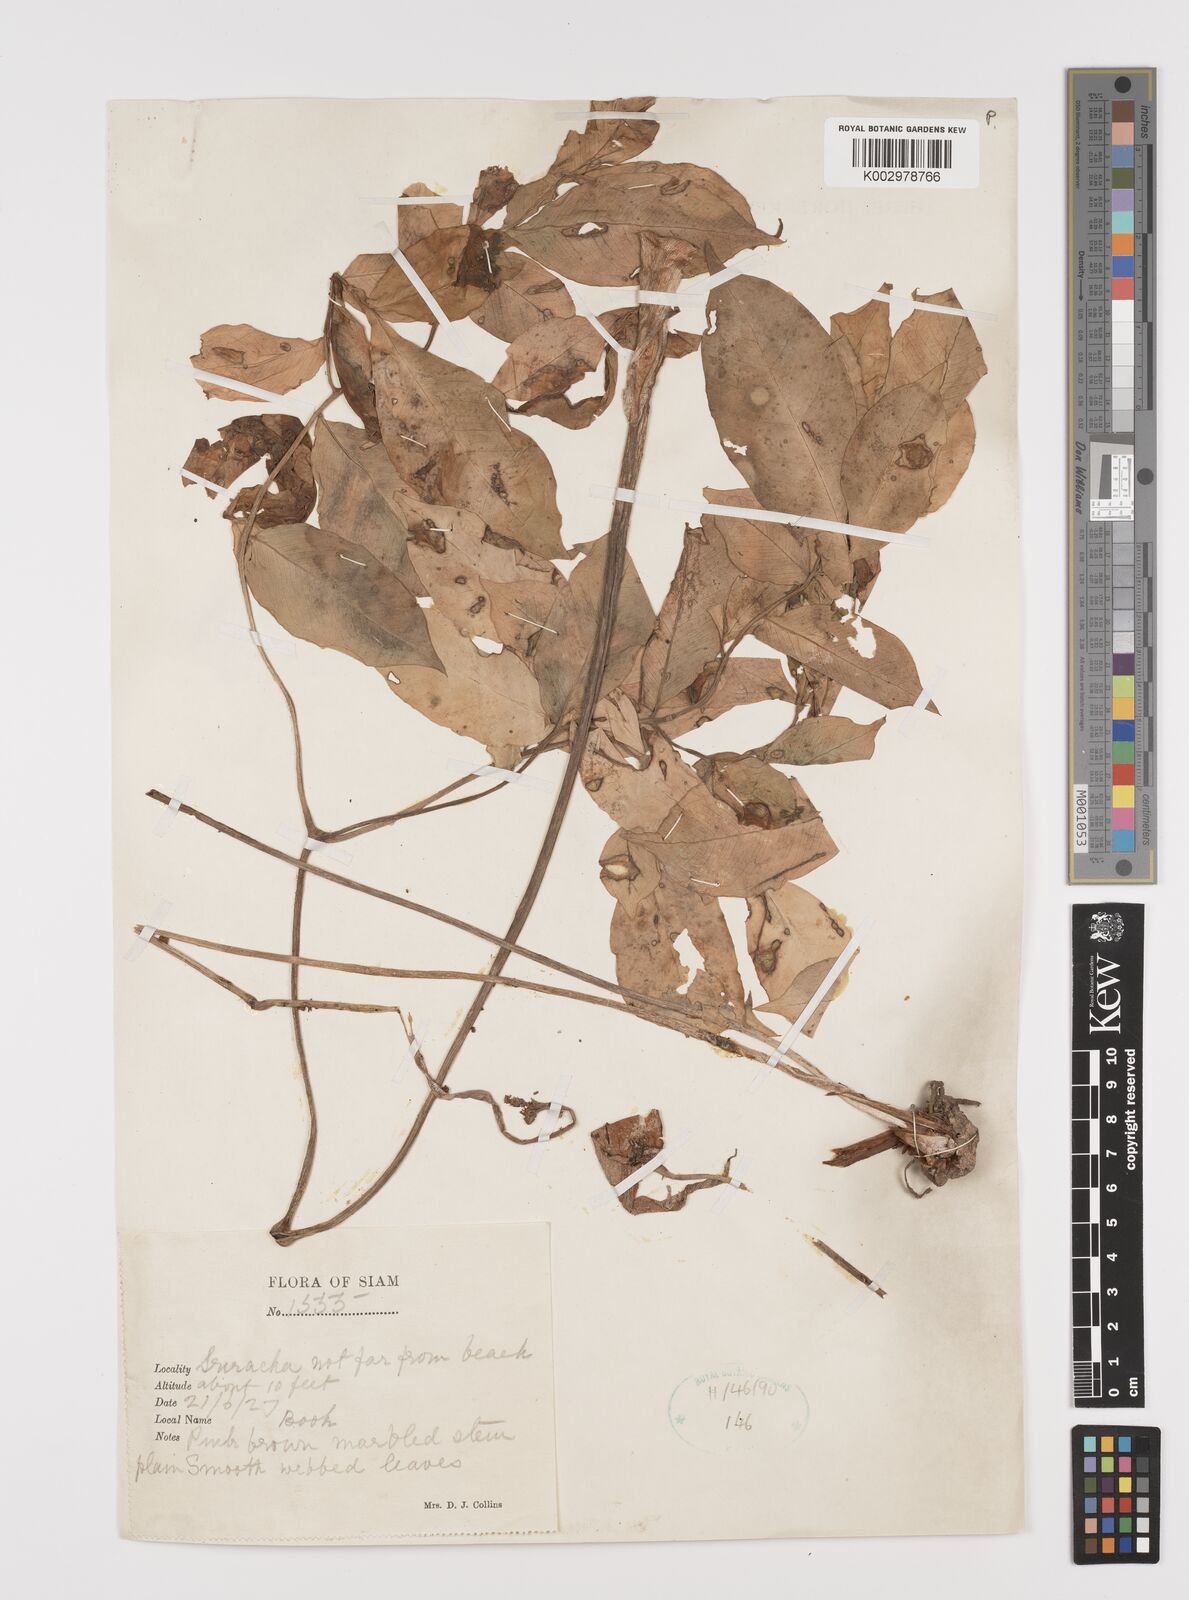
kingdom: Plantae
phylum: Tracheophyta
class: Liliopsida
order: Alismatales
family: Araceae
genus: Amorphophallus
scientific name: Amorphophallus
